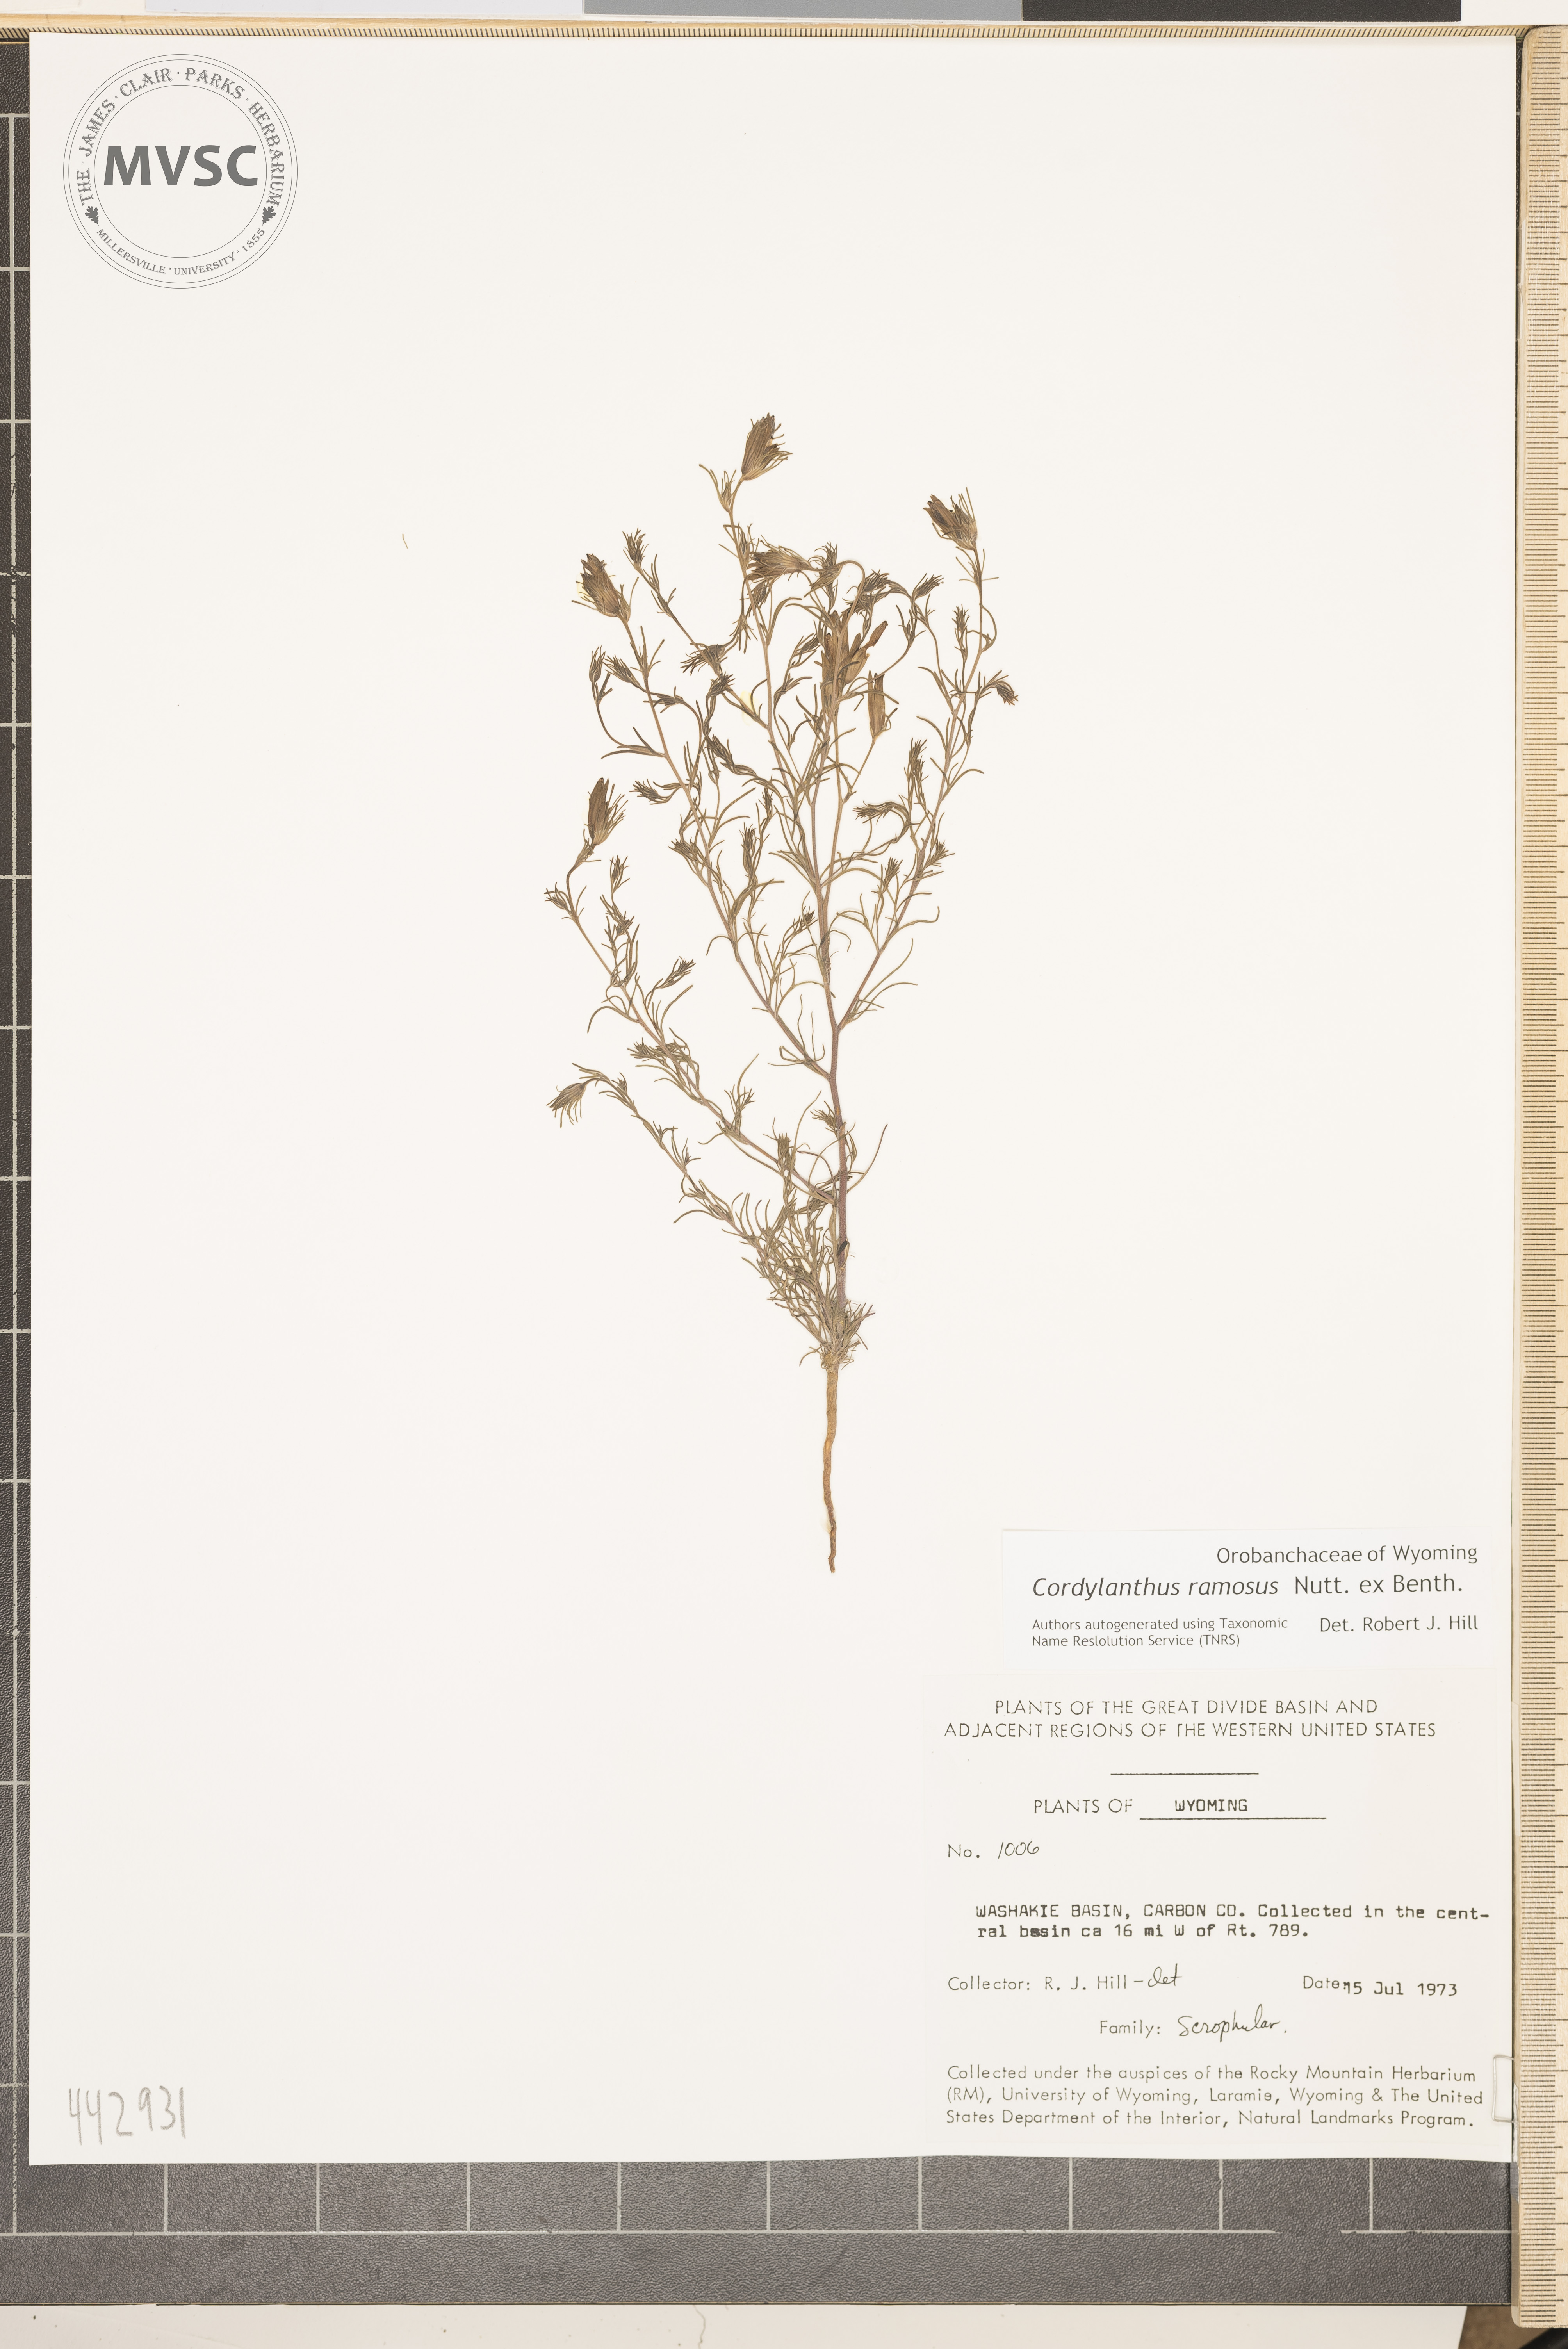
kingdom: Plantae
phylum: Tracheophyta
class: Magnoliopsida
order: Lamiales
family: Orobanchaceae
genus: Cordylanthus
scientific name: Cordylanthus ramosus
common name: Much-branched bird's-beak
